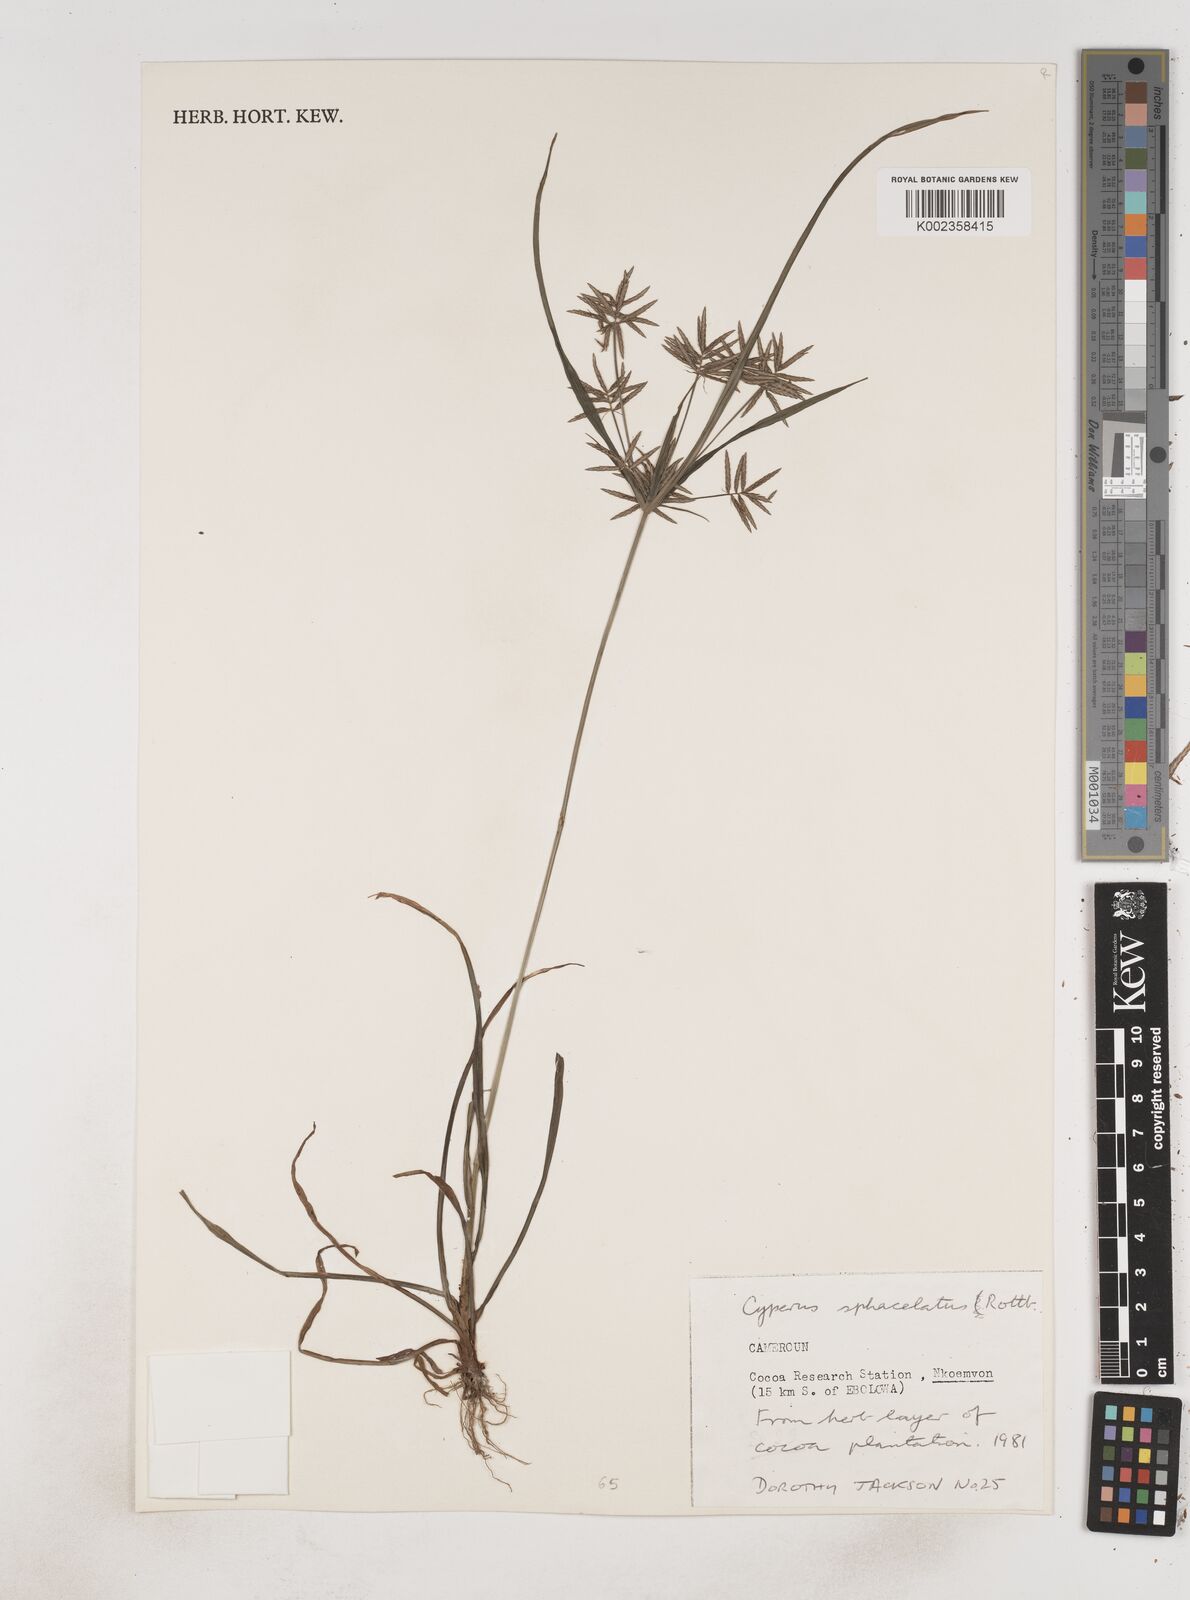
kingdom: Plantae
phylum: Tracheophyta
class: Liliopsida
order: Poales
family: Cyperaceae
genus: Cyperus
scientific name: Cyperus sphacelatus
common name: Roadside flatsedge
